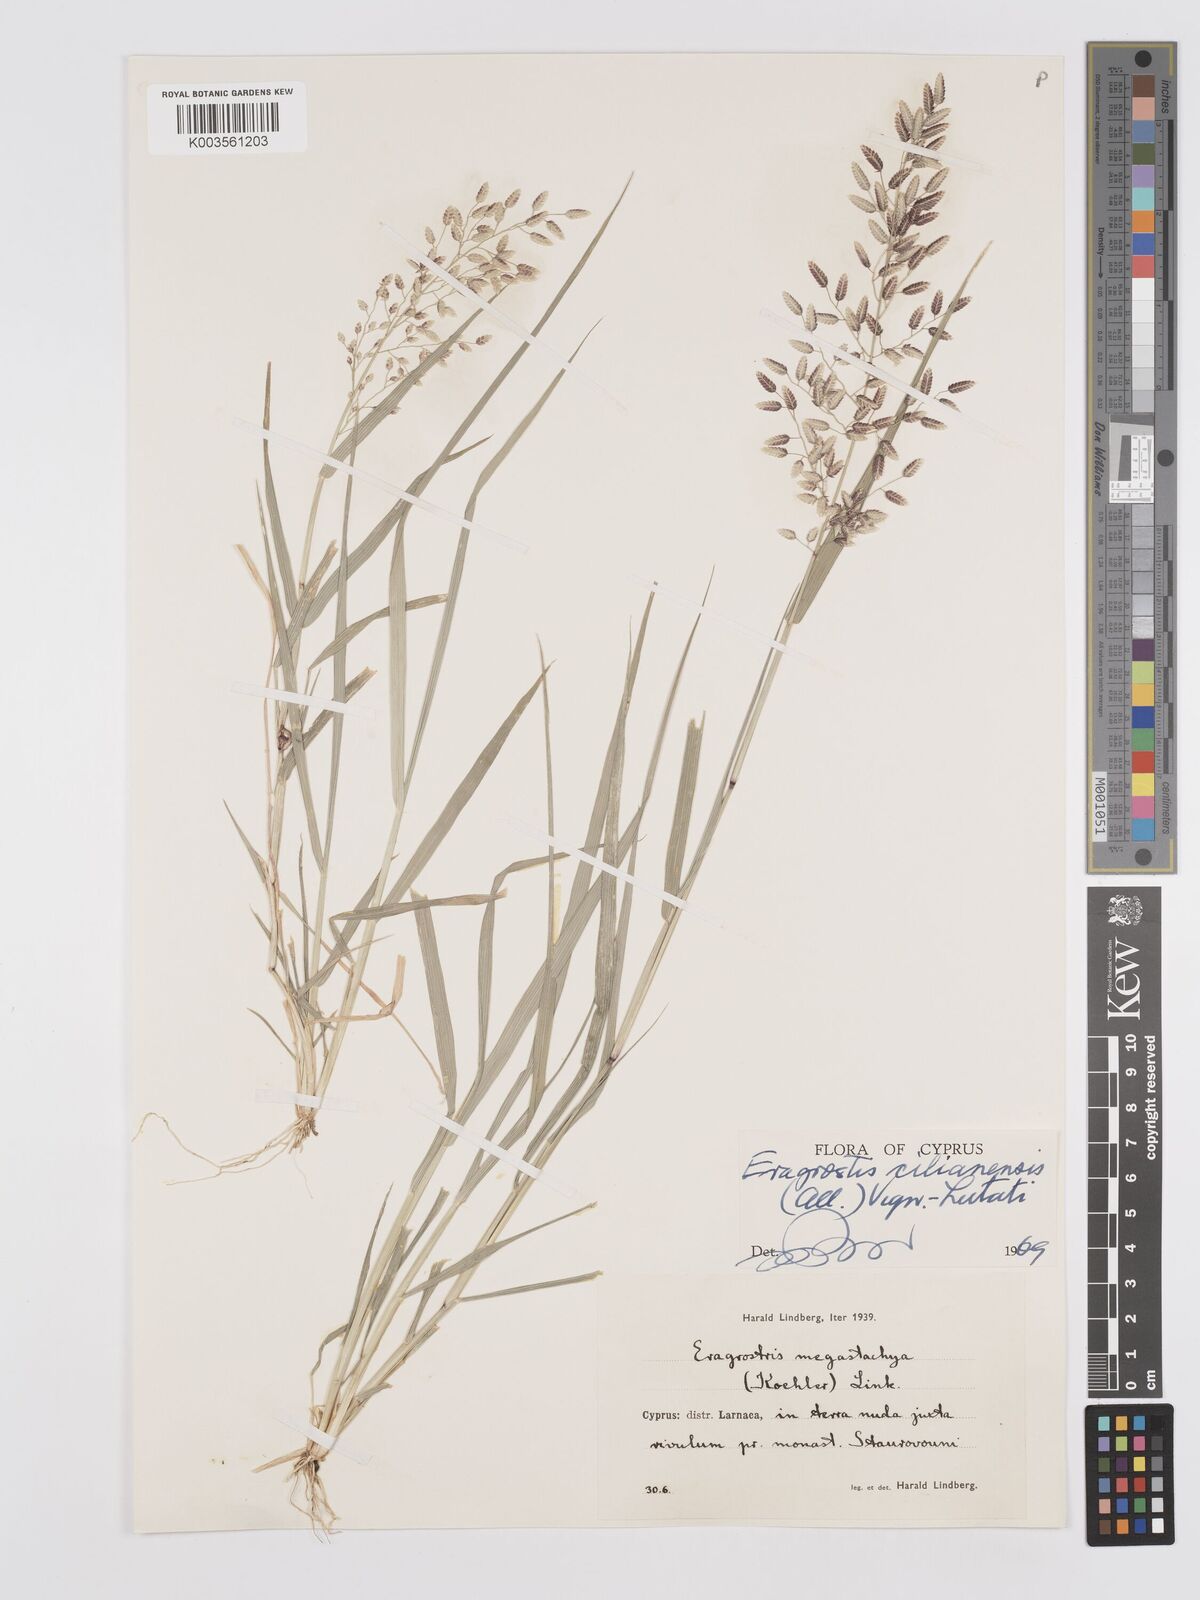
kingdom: Plantae
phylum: Tracheophyta
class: Liliopsida
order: Poales
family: Poaceae
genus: Eragrostis
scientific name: Eragrostis cilianensis
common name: Stinkgrass
